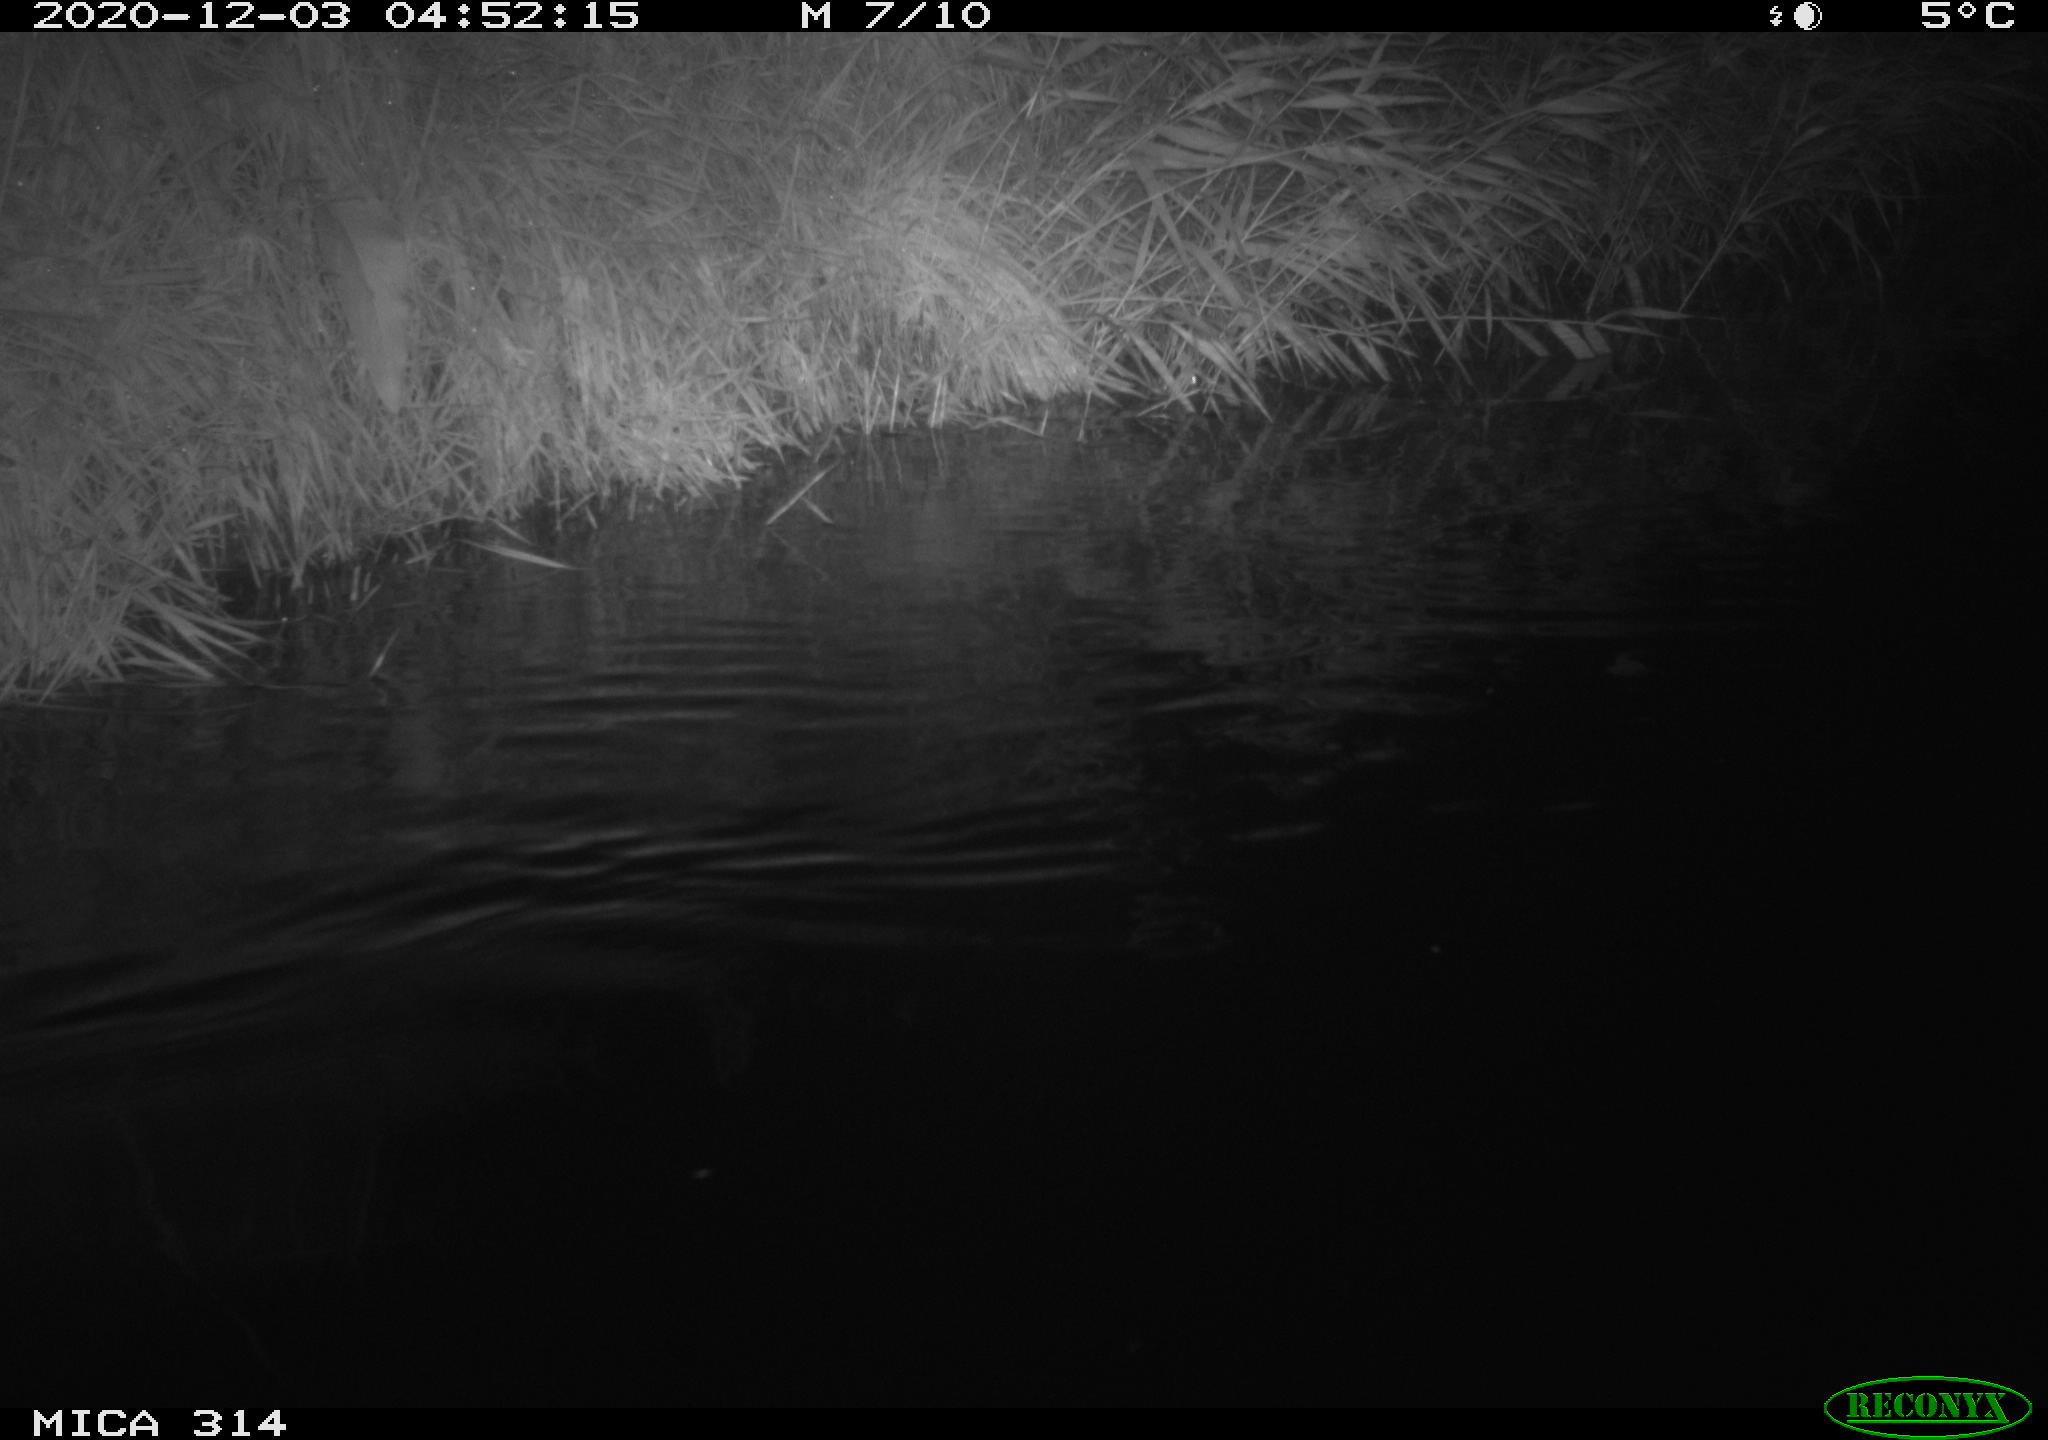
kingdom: Animalia
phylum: Chordata
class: Mammalia
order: Rodentia
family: Muridae
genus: Rattus
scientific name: Rattus norvegicus
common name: Brown rat
